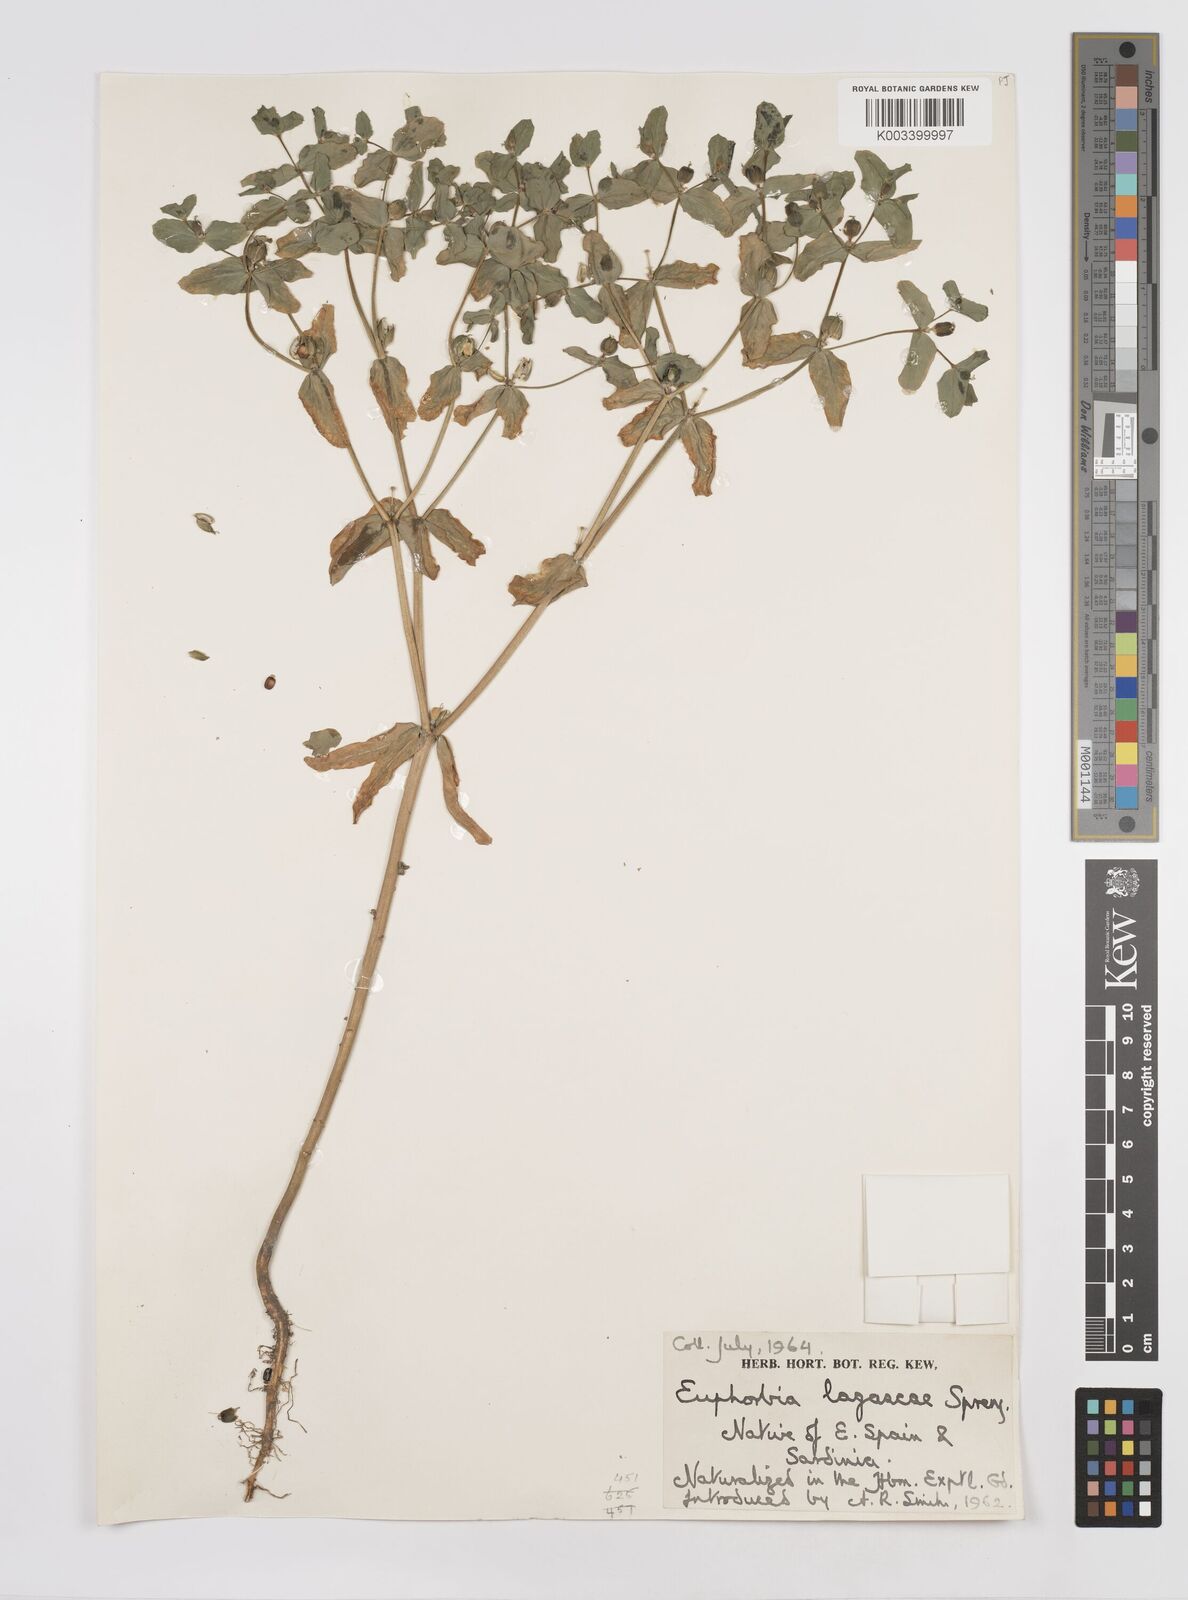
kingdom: Plantae
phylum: Tracheophyta
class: Magnoliopsida
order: Malpighiales
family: Euphorbiaceae
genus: Euphorbia
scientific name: Euphorbia
